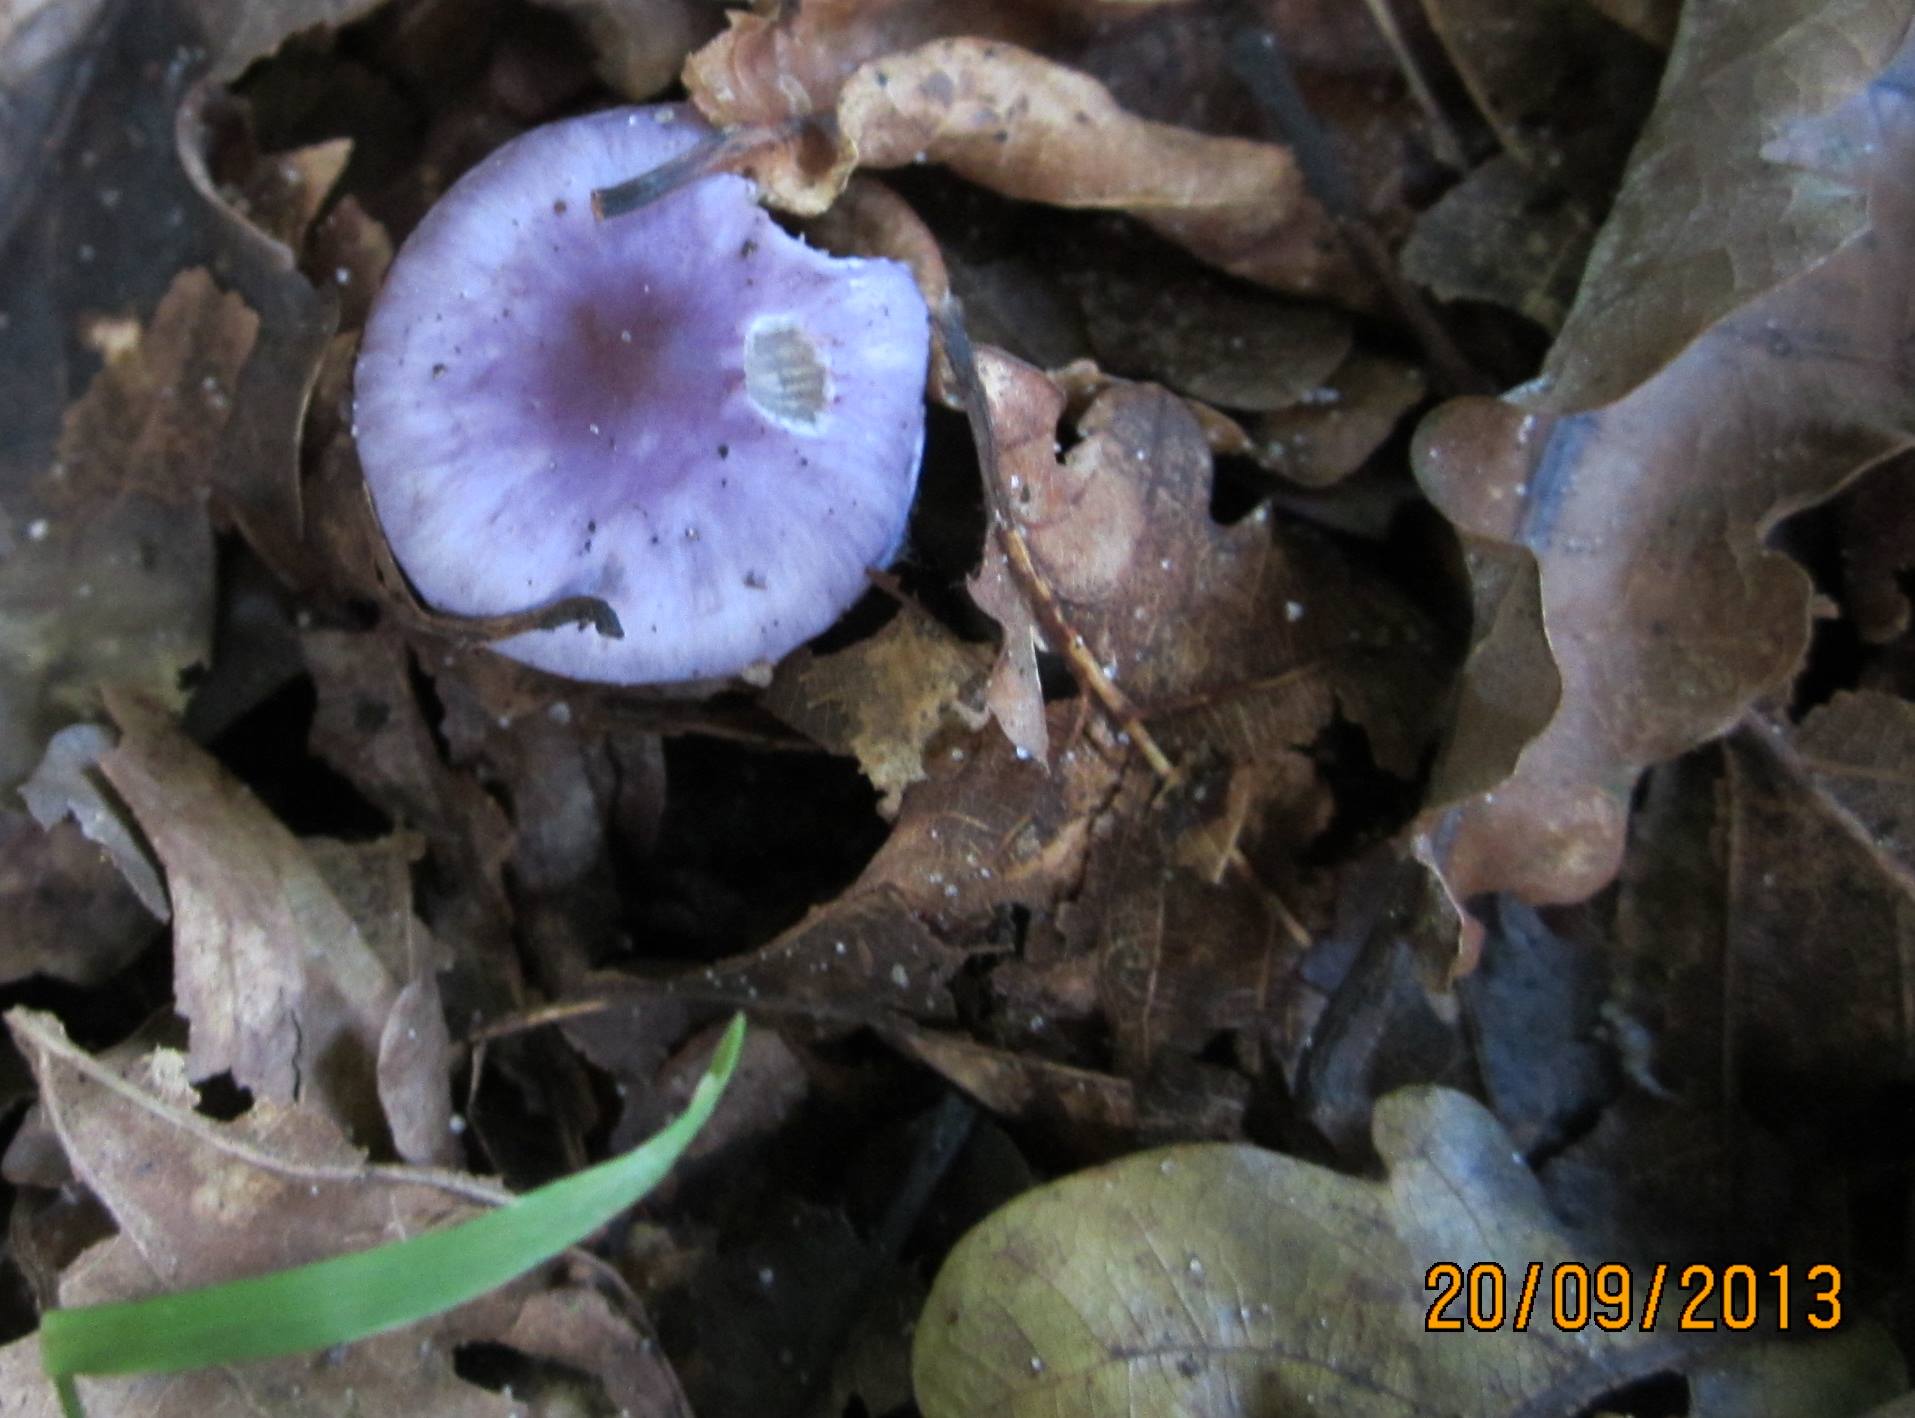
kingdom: Fungi
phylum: Basidiomycota
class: Agaricomycetes
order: Agaricales
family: Inocybaceae
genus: Inocybe
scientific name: Inocybe geophylla
